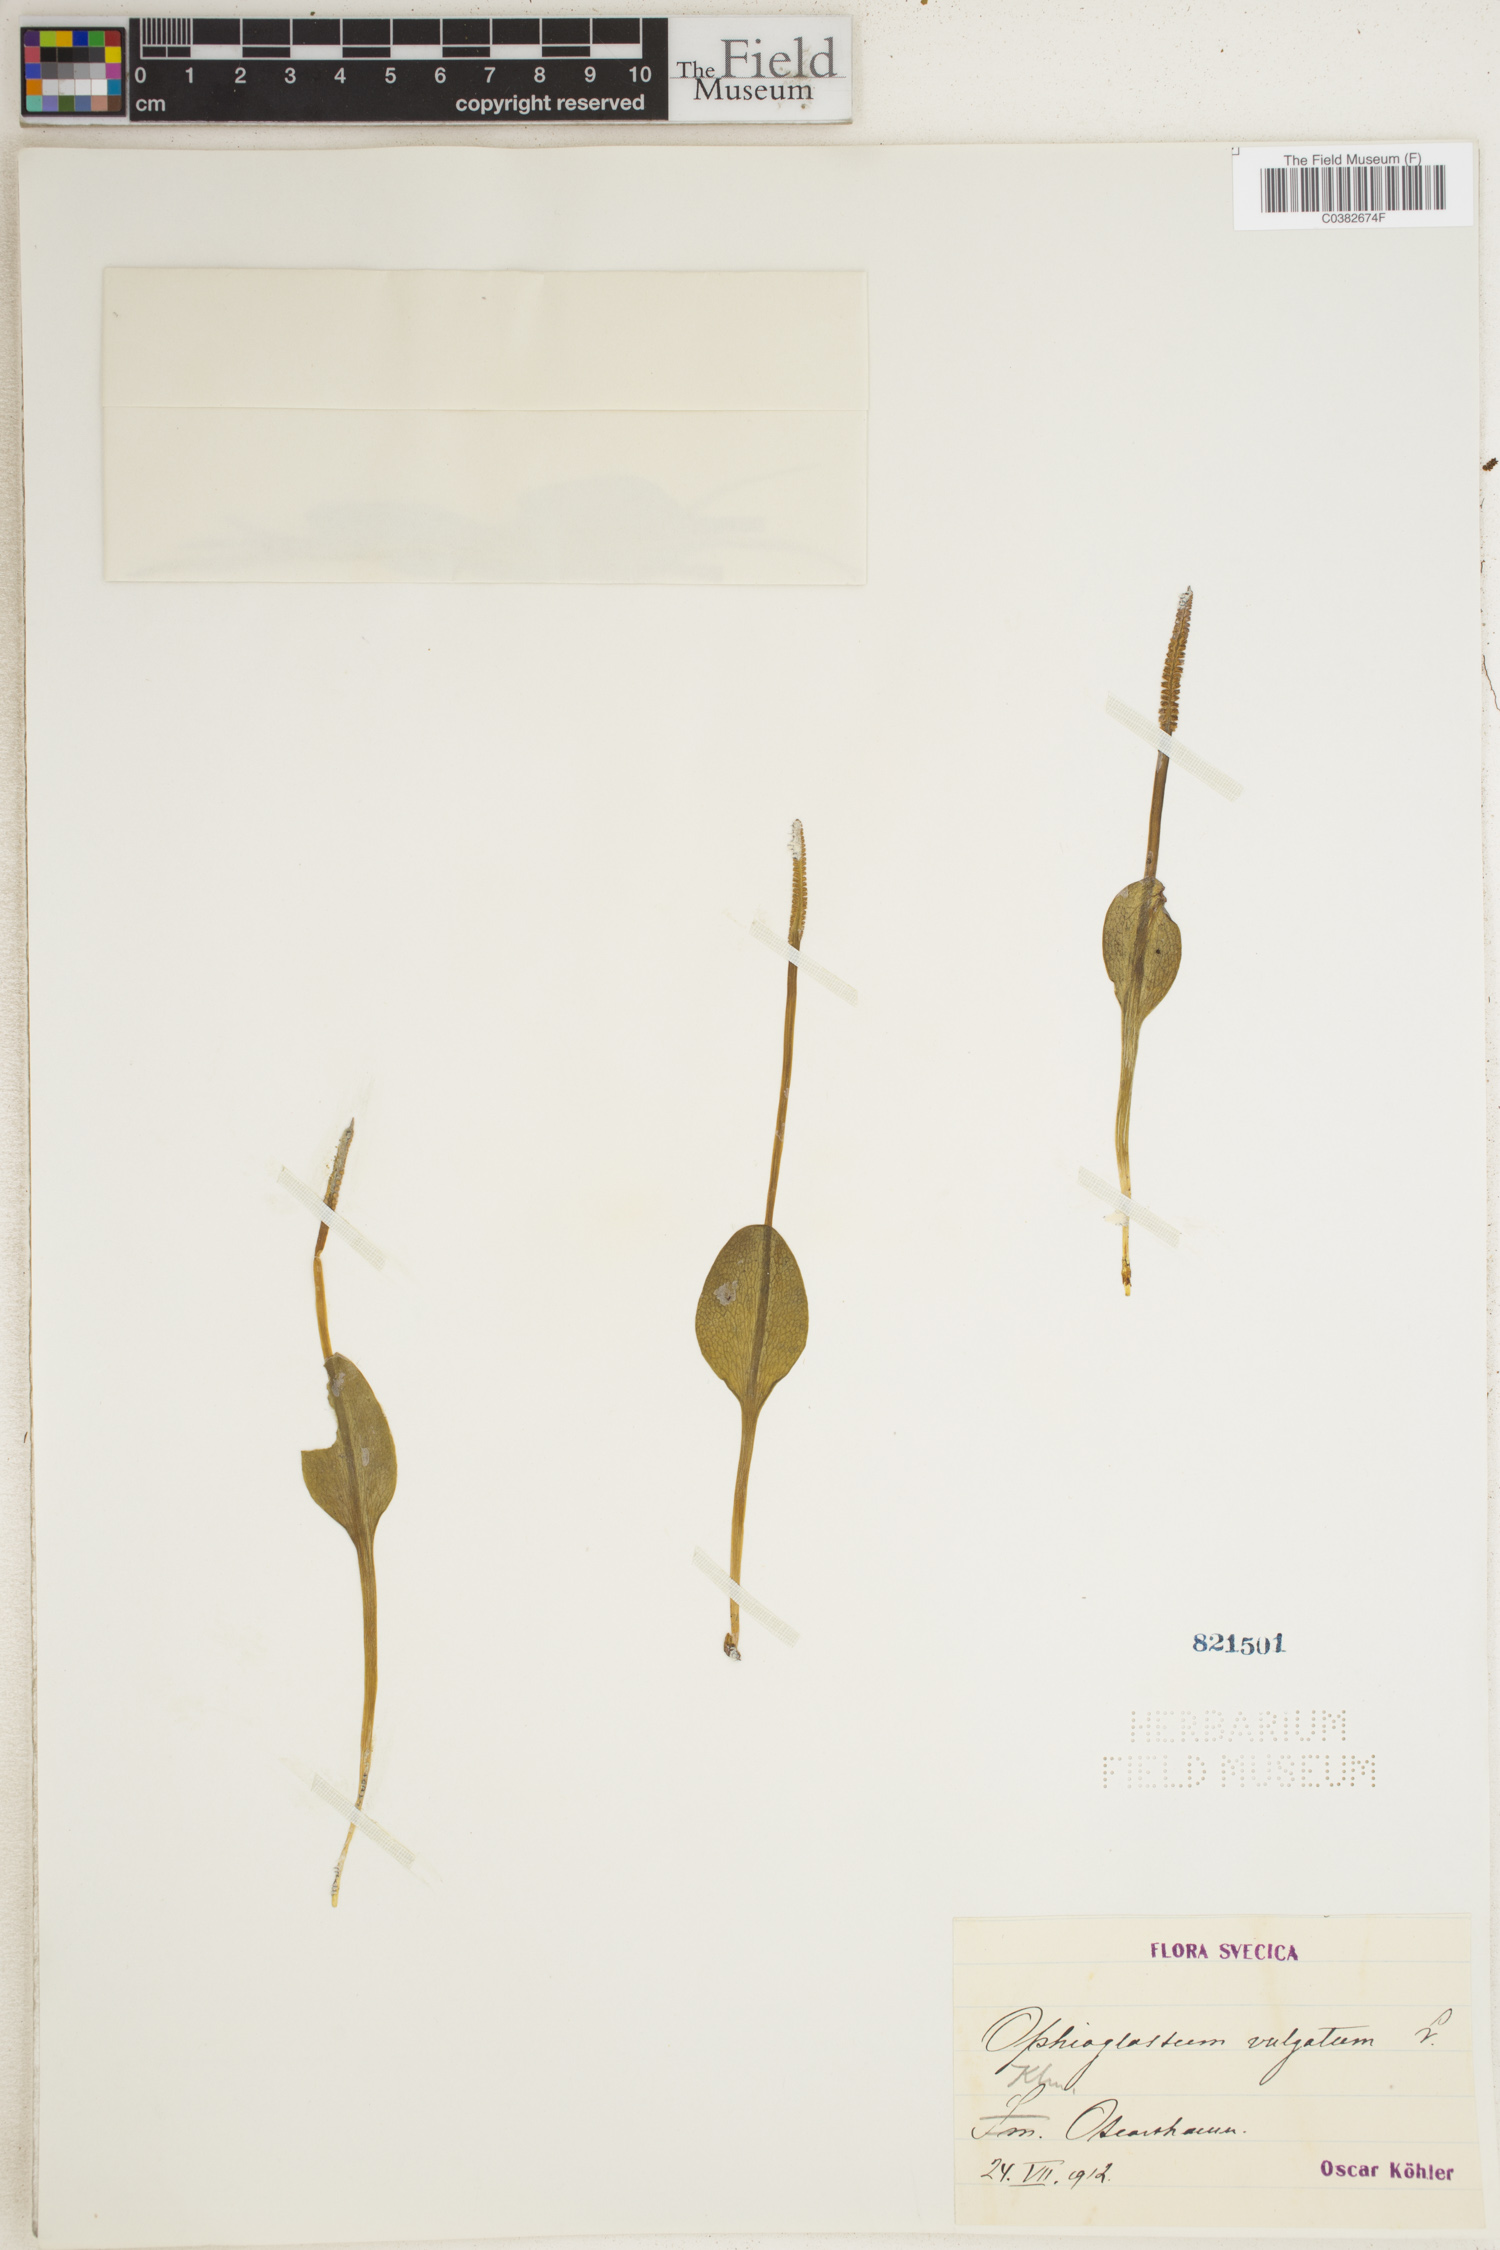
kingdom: Plantae
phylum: Tracheophyta
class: Polypodiopsida
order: Ophioglossales
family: Ophioglossaceae
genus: Ophioglossum
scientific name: Ophioglossum vulgatum
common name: Adder's-tongue
